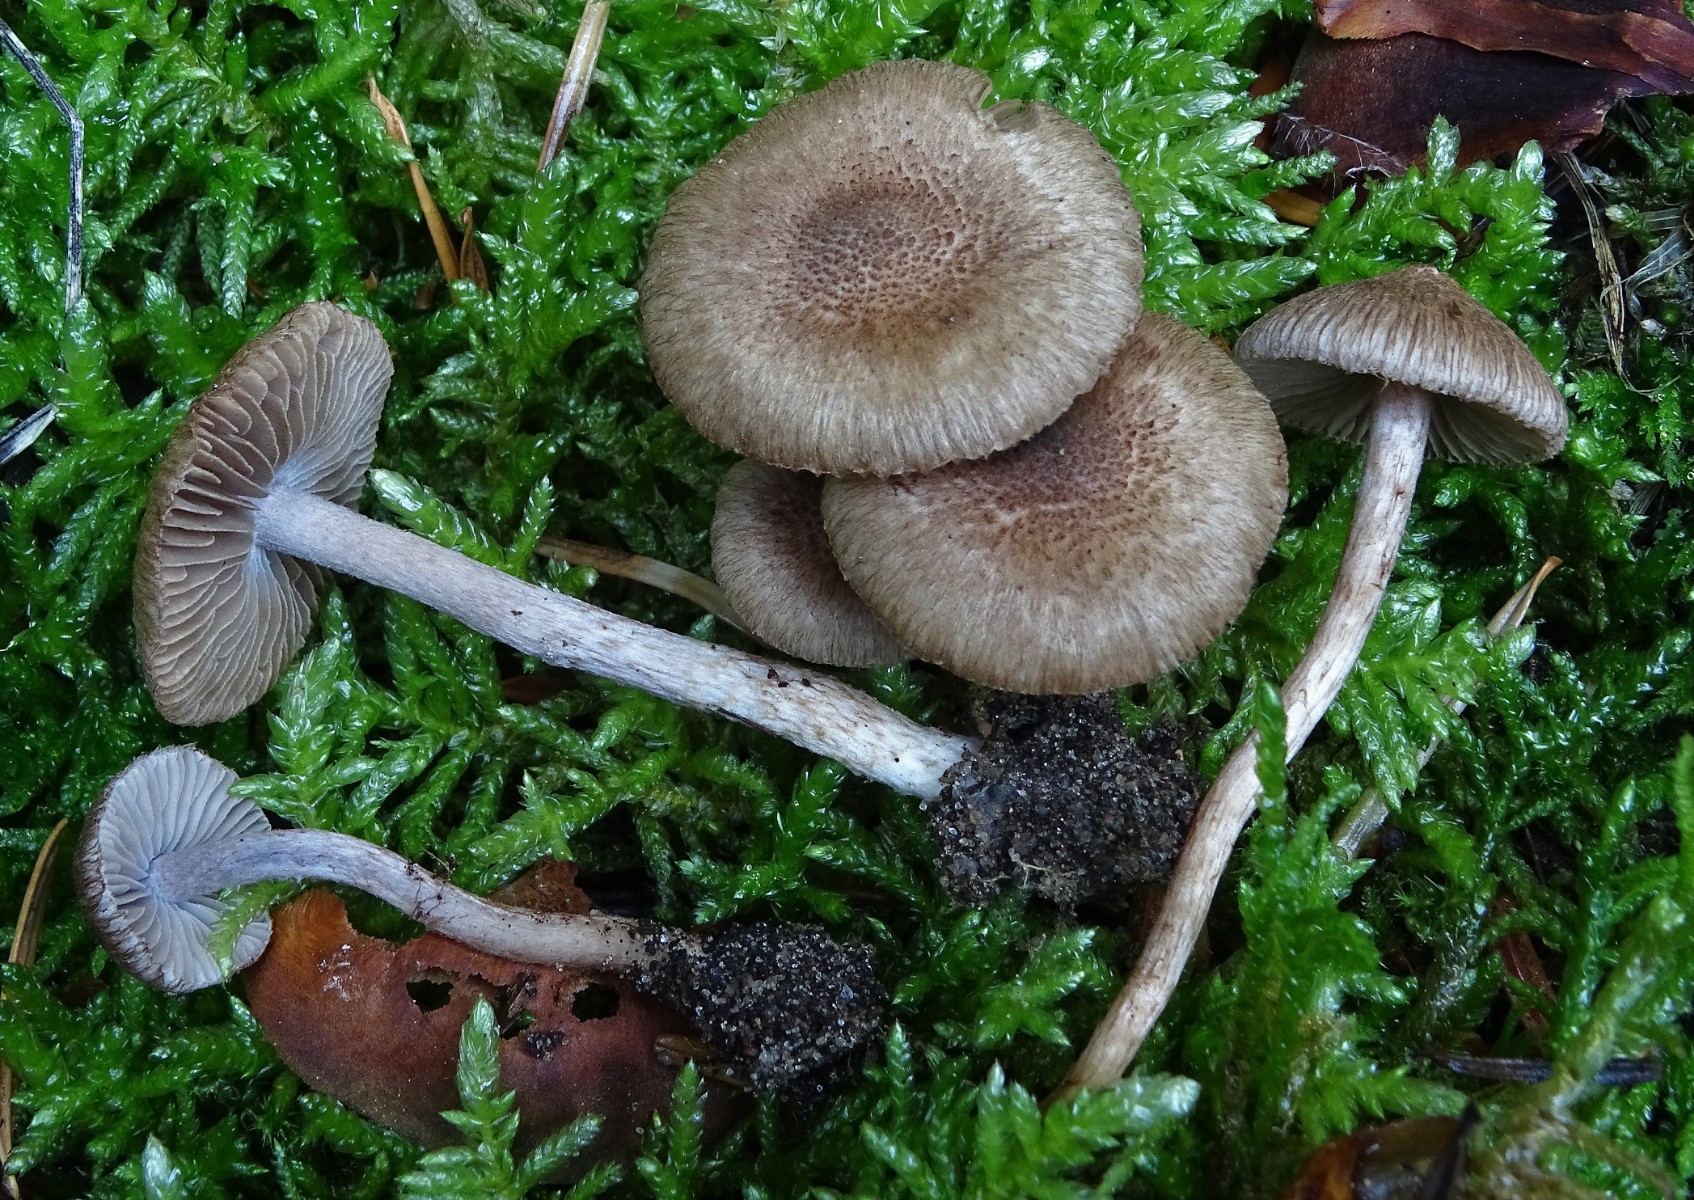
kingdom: Fungi
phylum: Basidiomycota
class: Agaricomycetes
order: Agaricales
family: Inocybaceae
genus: Inocybe
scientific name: Inocybe cincinnata
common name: lillabladet trævlhat
